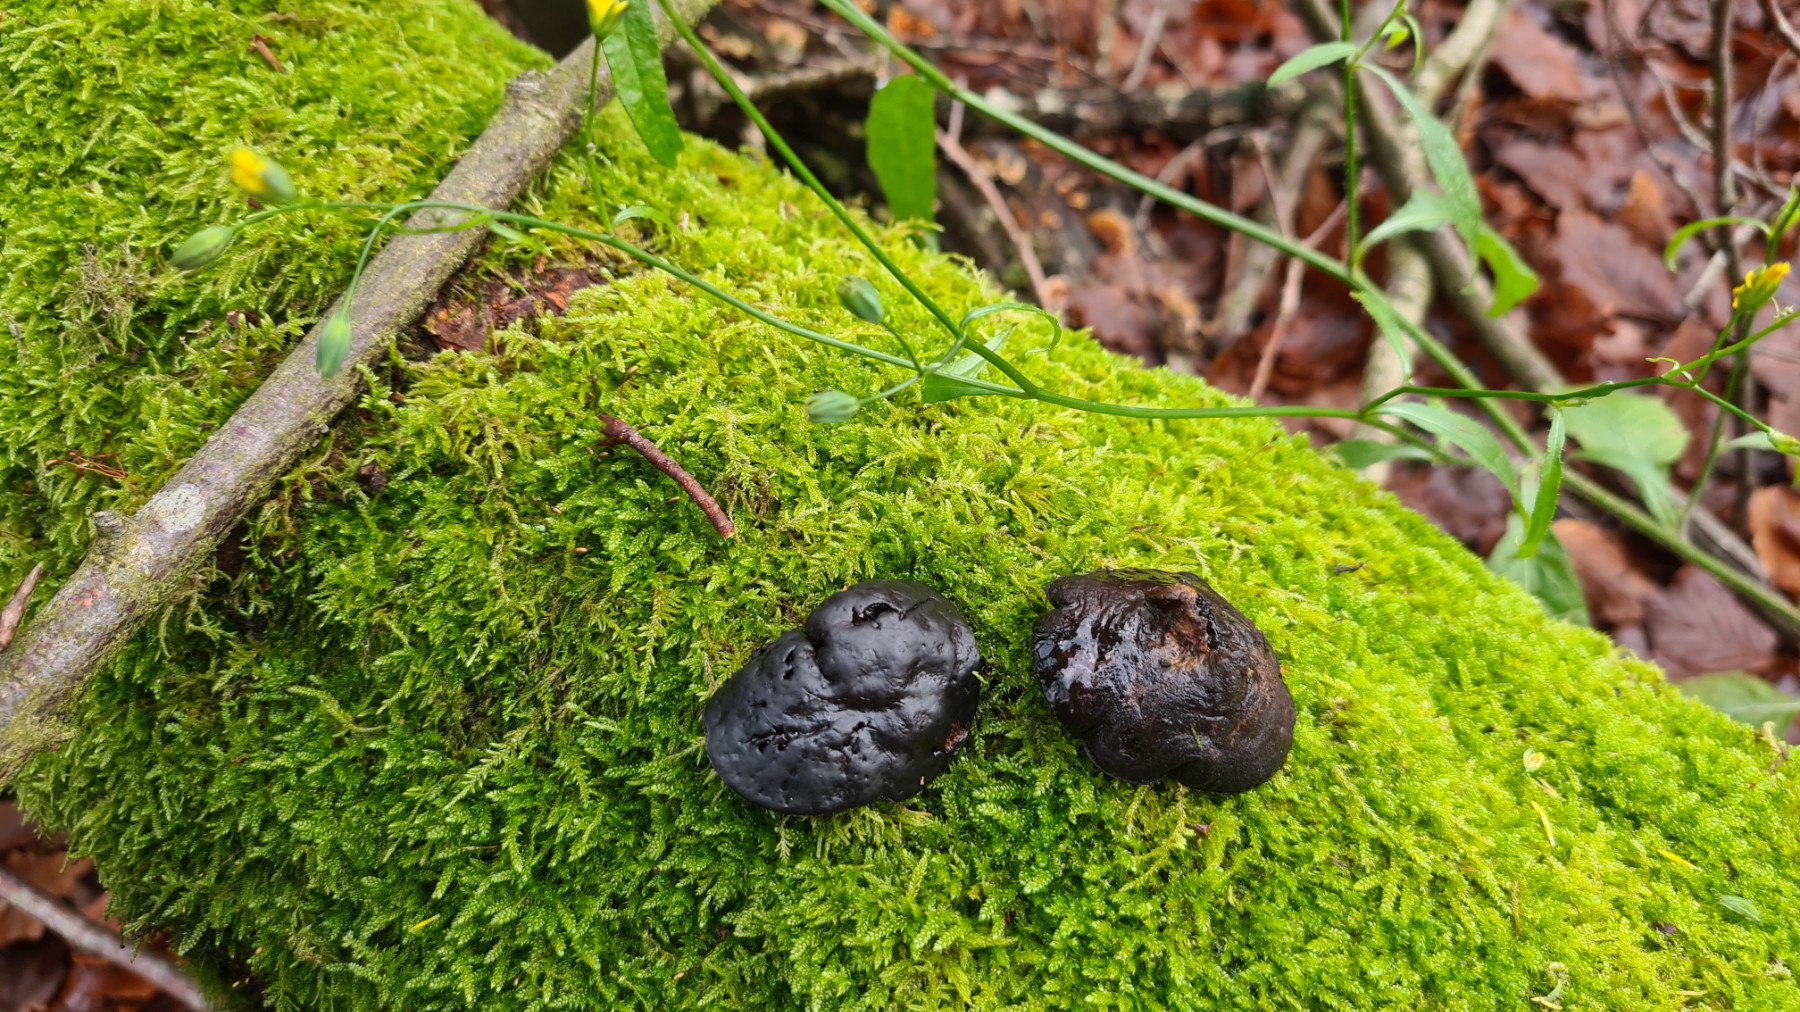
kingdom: Fungi
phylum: Ascomycota
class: Leotiomycetes
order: Phacidiales
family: Phacidiaceae
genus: Bulgaria
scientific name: Bulgaria inquinans
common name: afsmittende topsvamp
